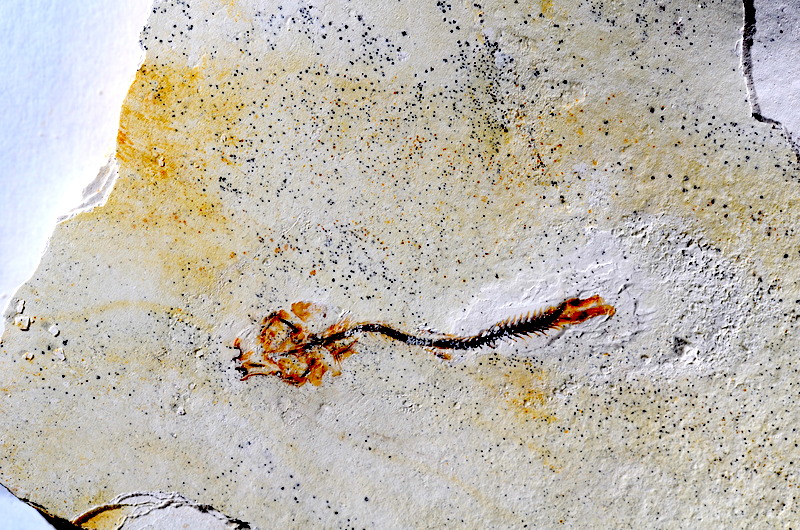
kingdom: Animalia
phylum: Chordata
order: Salmoniformes
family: Orthogonikleithridae
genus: Orthogonikleithrus
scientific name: Orthogonikleithrus hoelli
